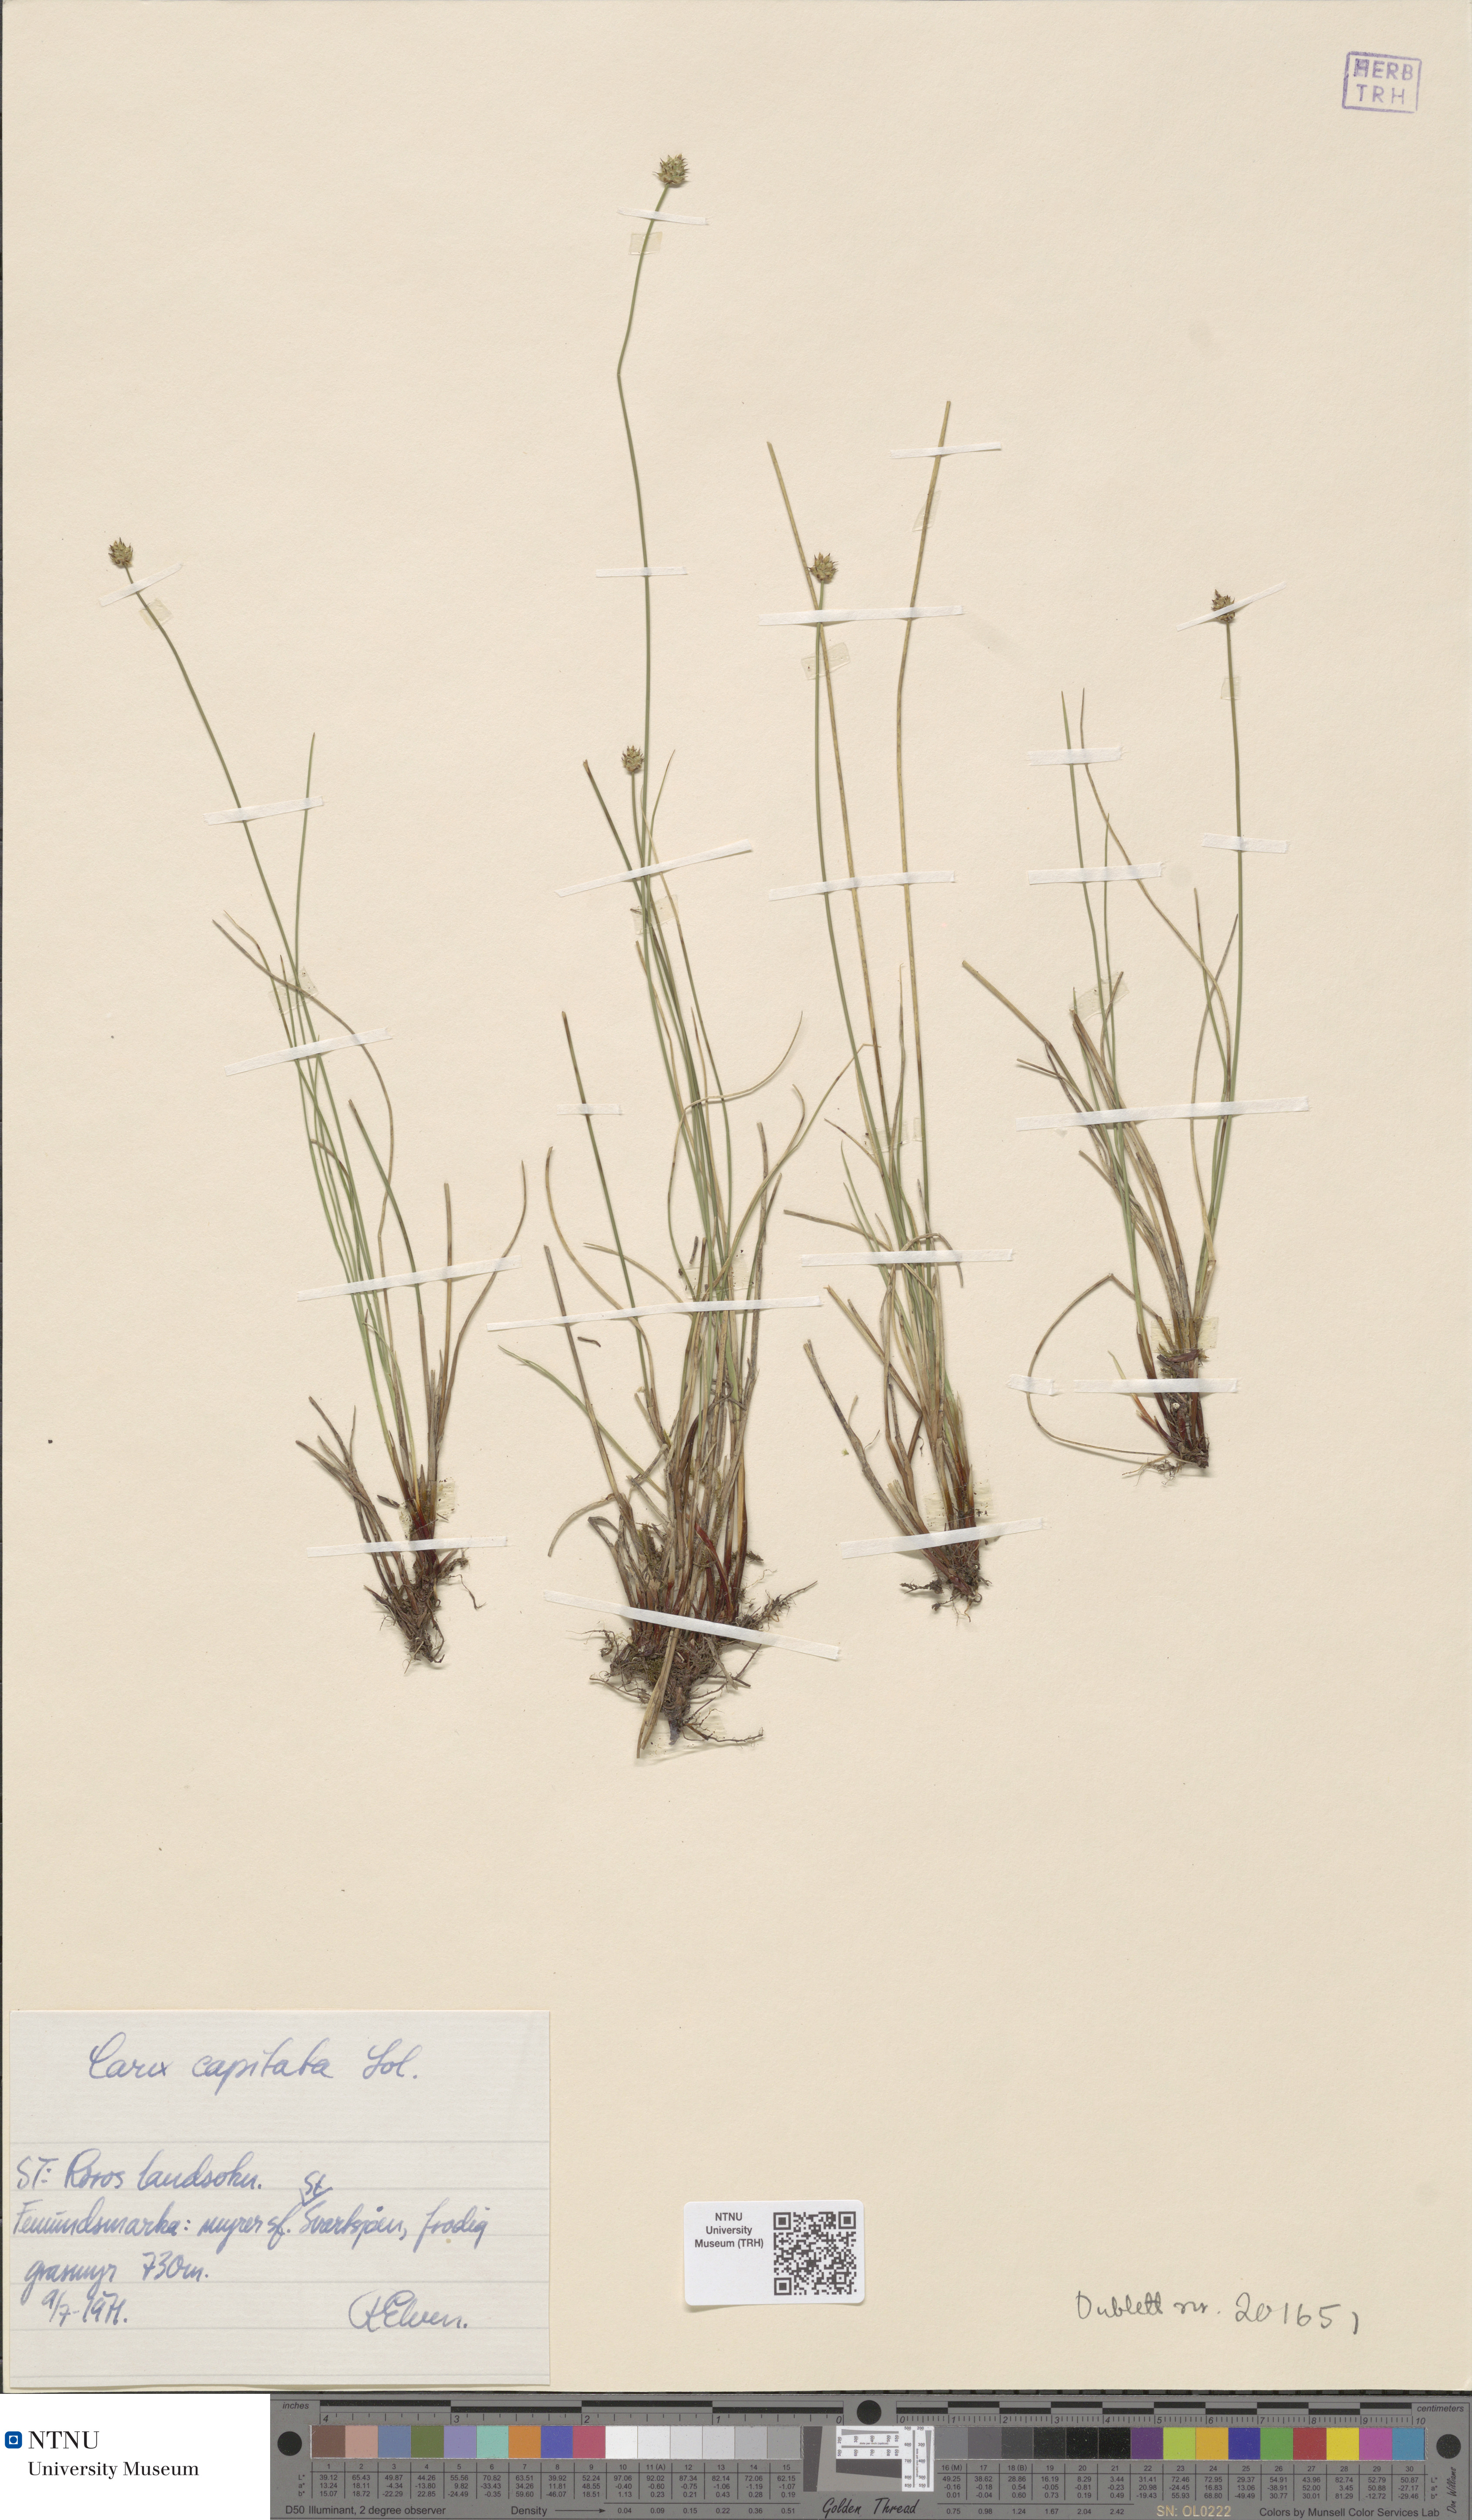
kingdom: Plantae
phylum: Tracheophyta
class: Liliopsida
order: Poales
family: Cyperaceae
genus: Carex
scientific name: Carex capitata
